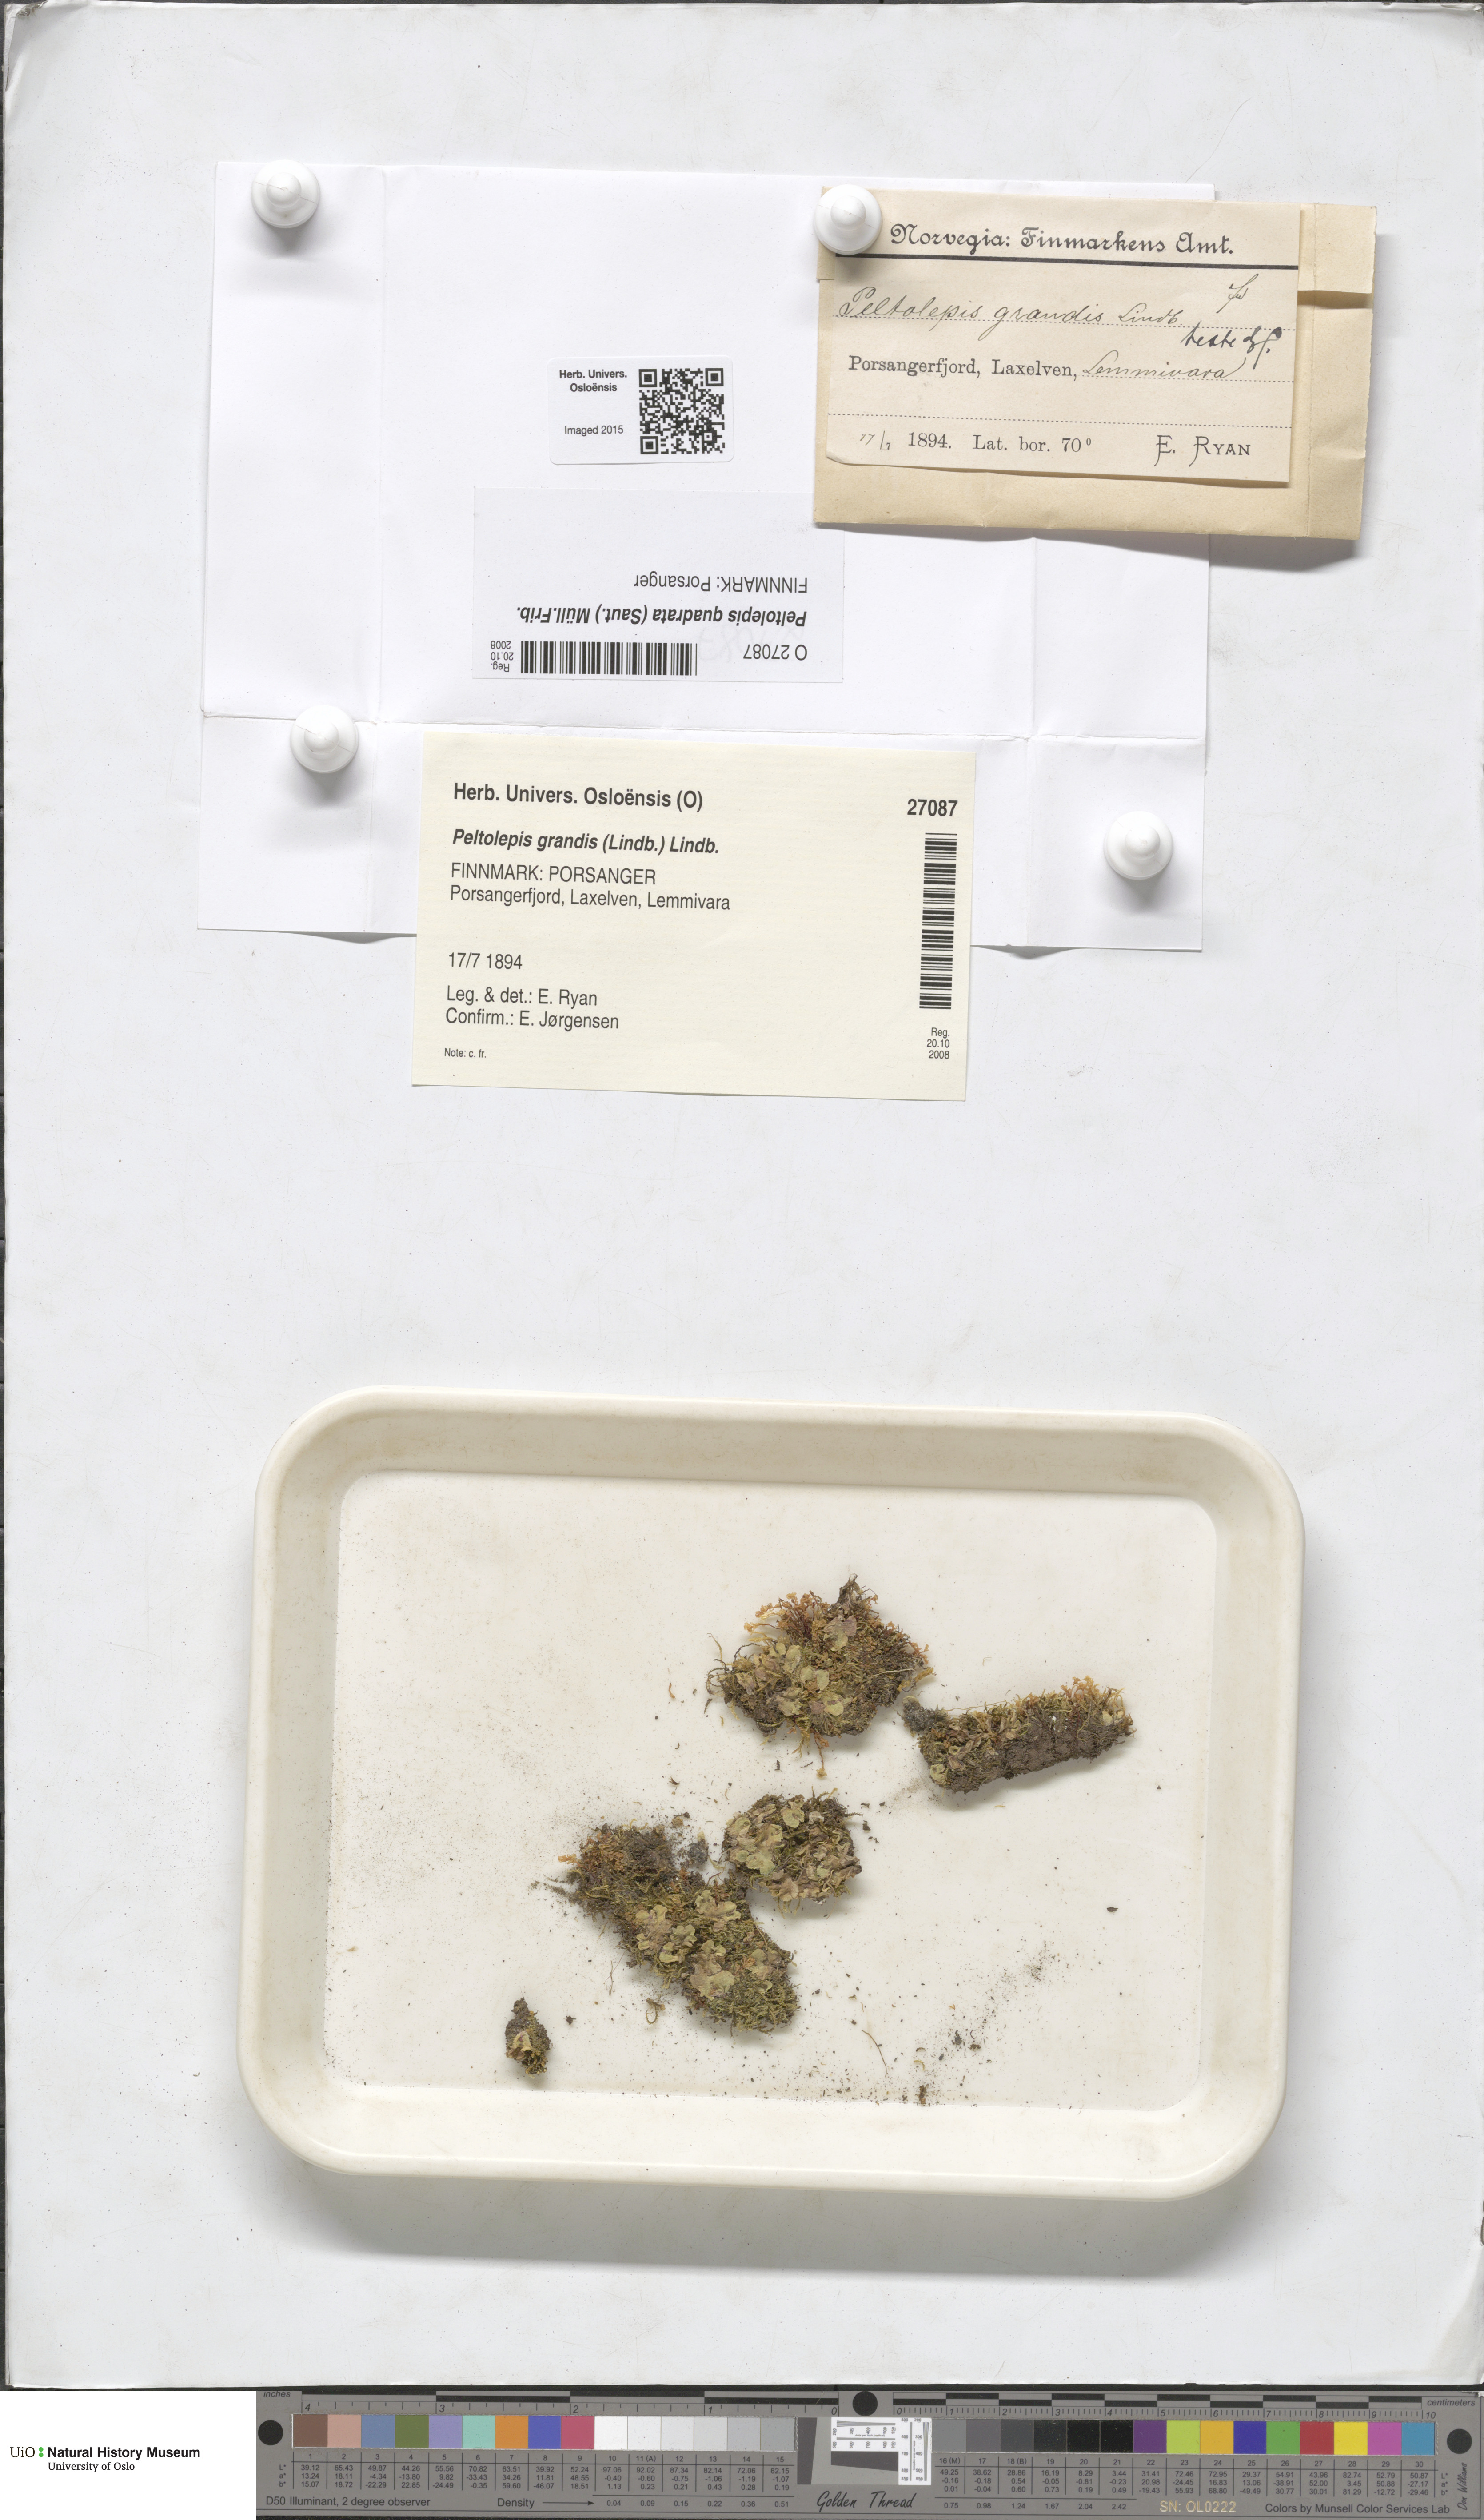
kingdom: Plantae
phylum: Marchantiophyta
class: Marchantiopsida
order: Marchantiales
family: Cleveaceae
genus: Peltolepis
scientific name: Peltolepis quadrata
